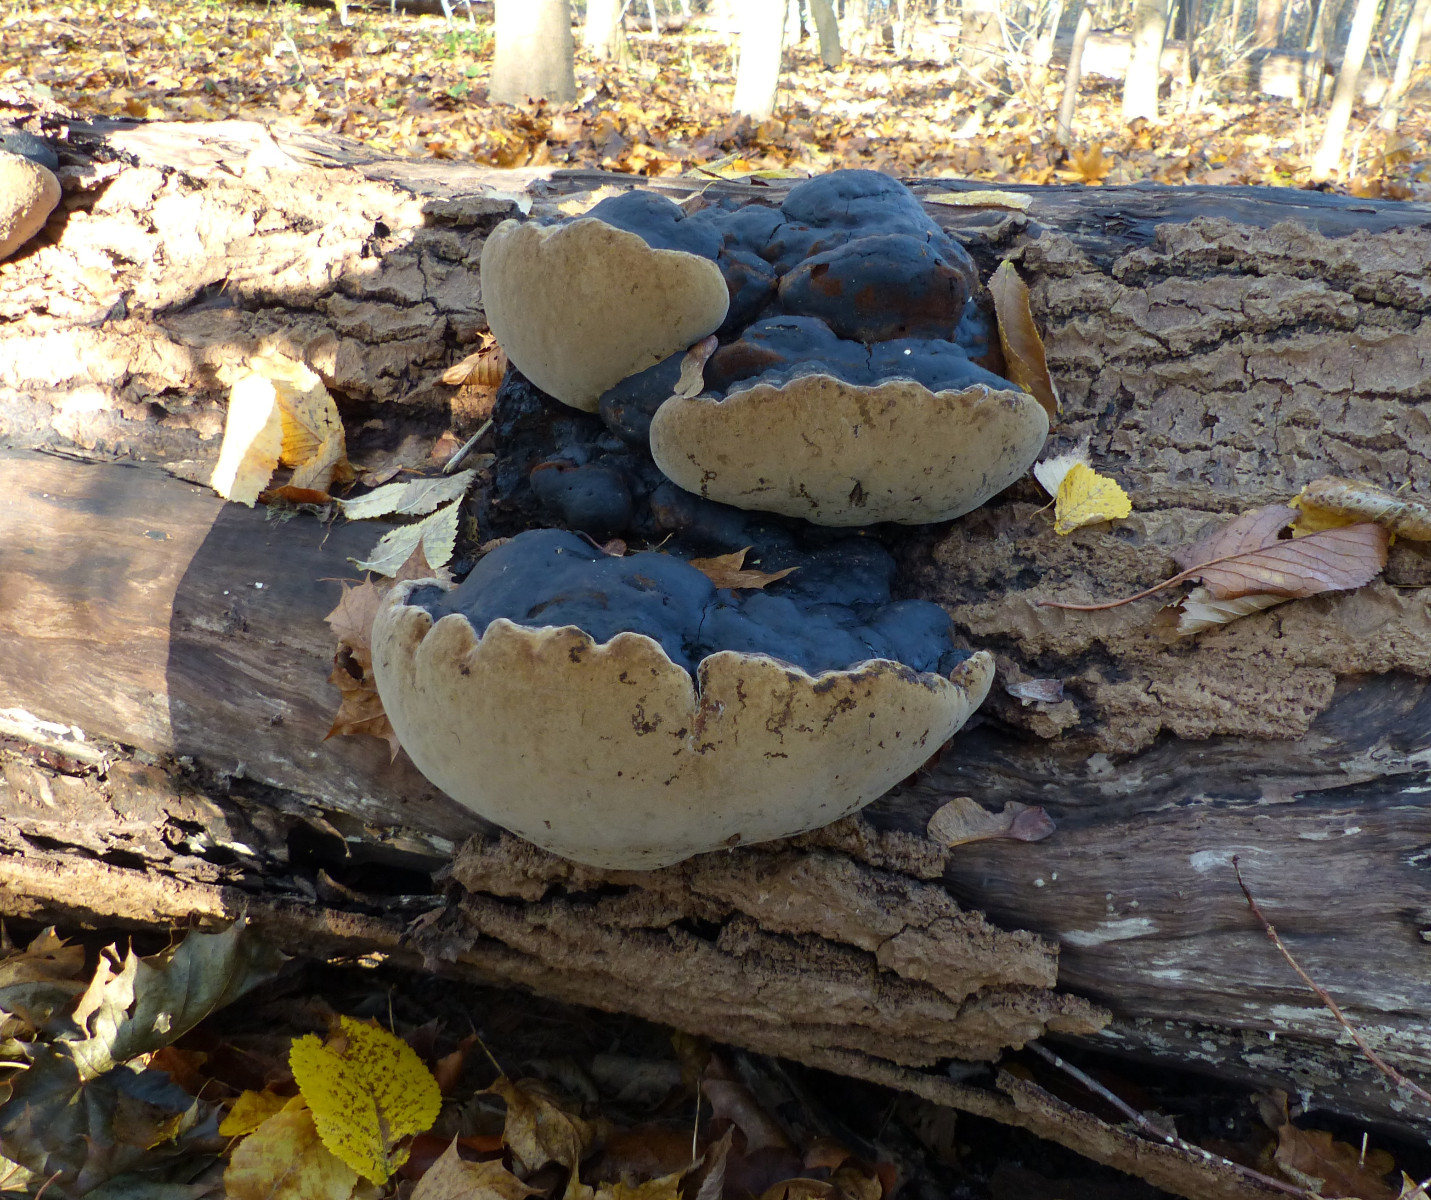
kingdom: Fungi
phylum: Basidiomycota
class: Agaricomycetes
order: Hymenochaetales
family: Hymenochaetaceae
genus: Phellinus
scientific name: Phellinus populicola
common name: poppel-ildporesvamp
